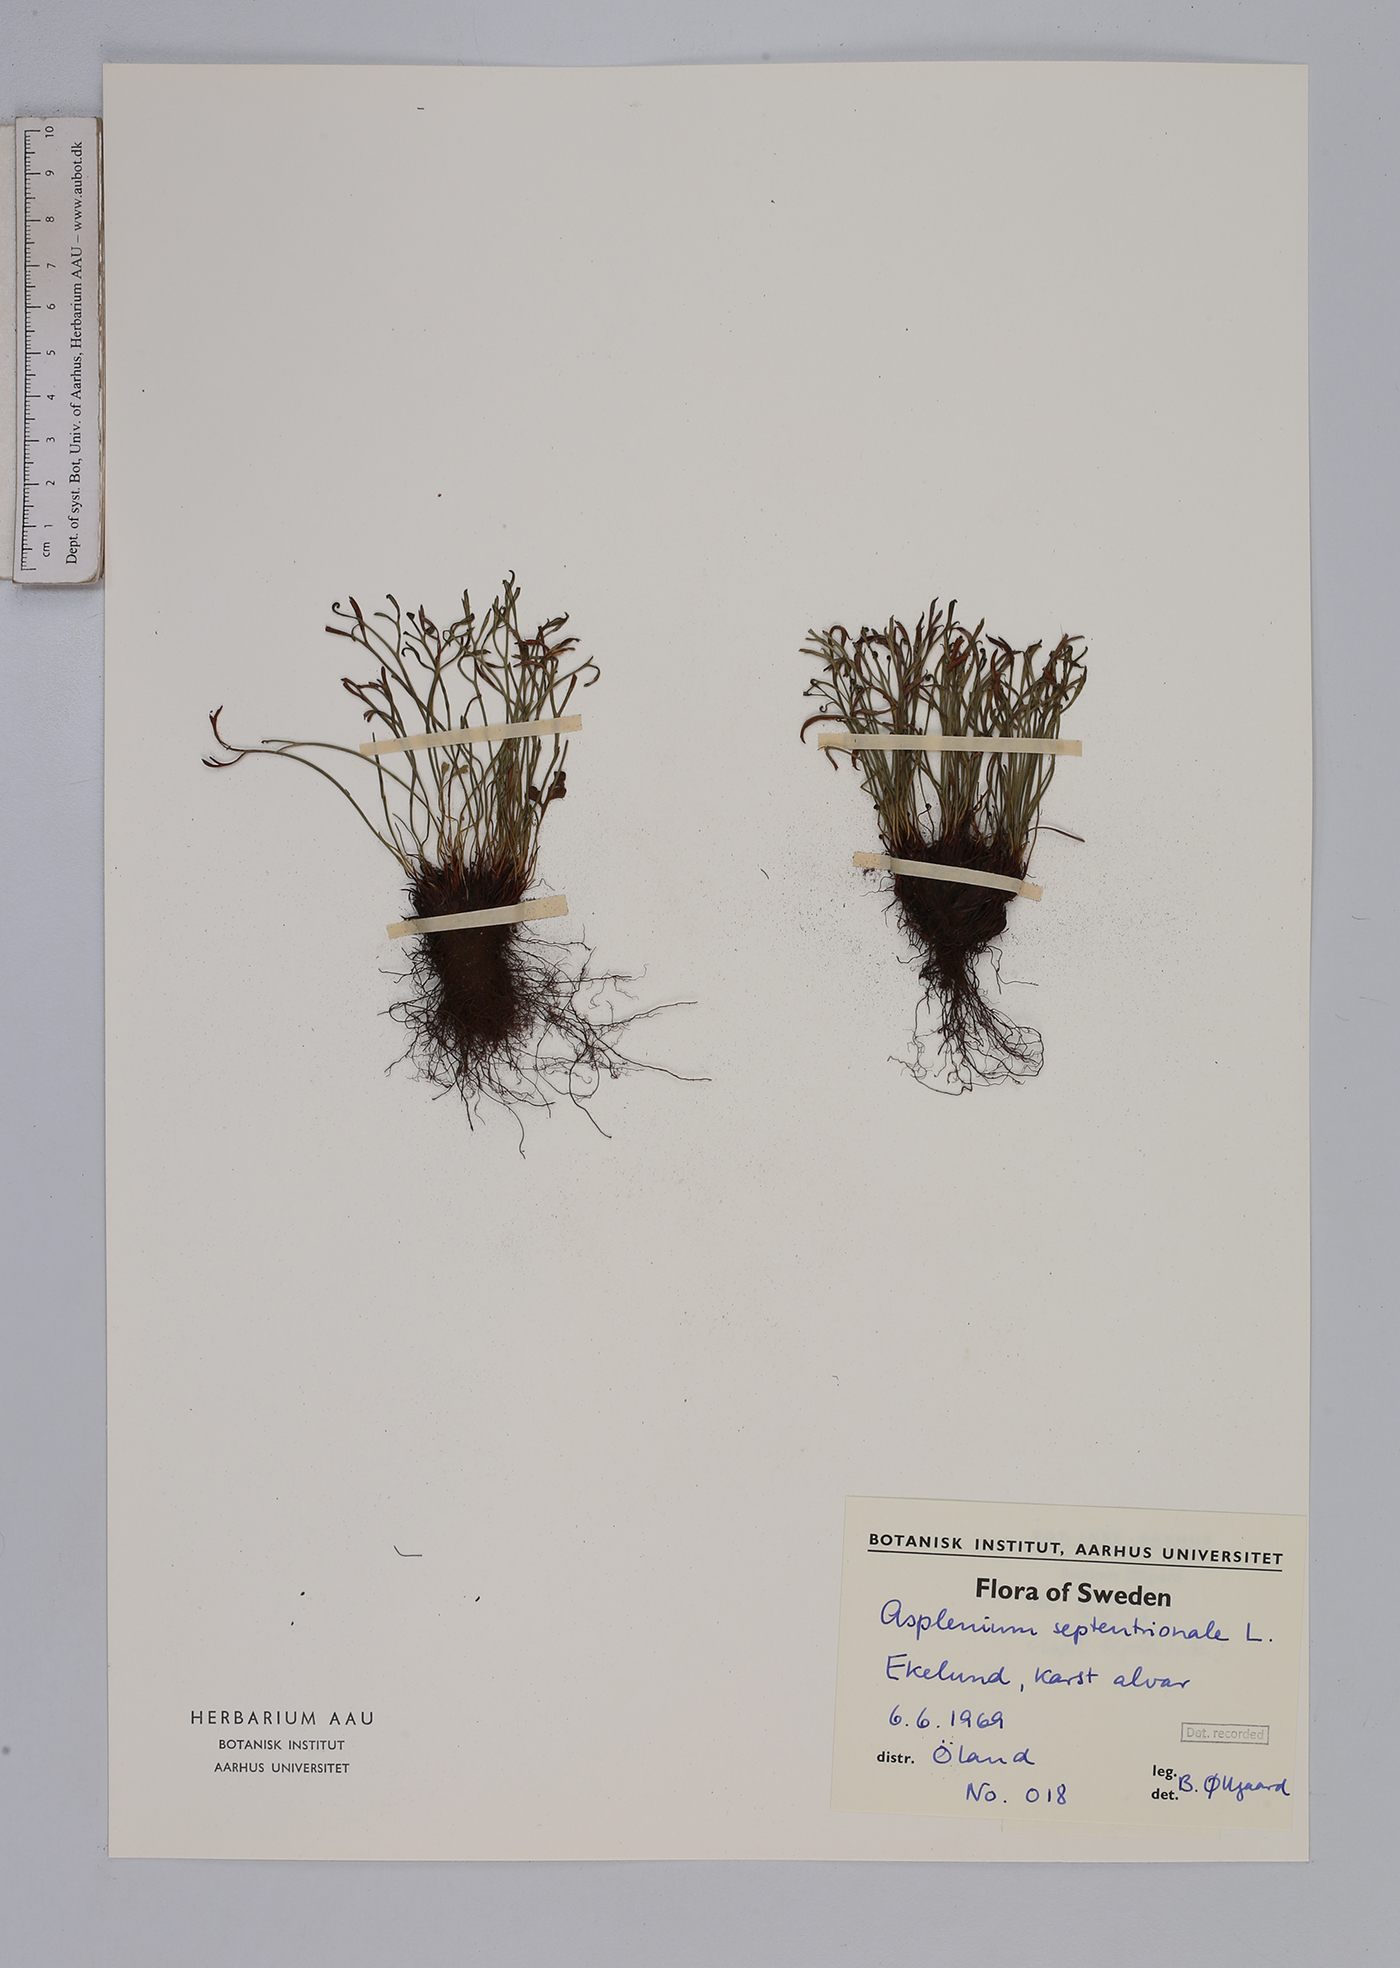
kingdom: Plantae
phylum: Tracheophyta
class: Polypodiopsida
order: Polypodiales
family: Aspleniaceae
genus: Asplenium
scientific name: Asplenium septentrionale
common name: Forked spleenwort
